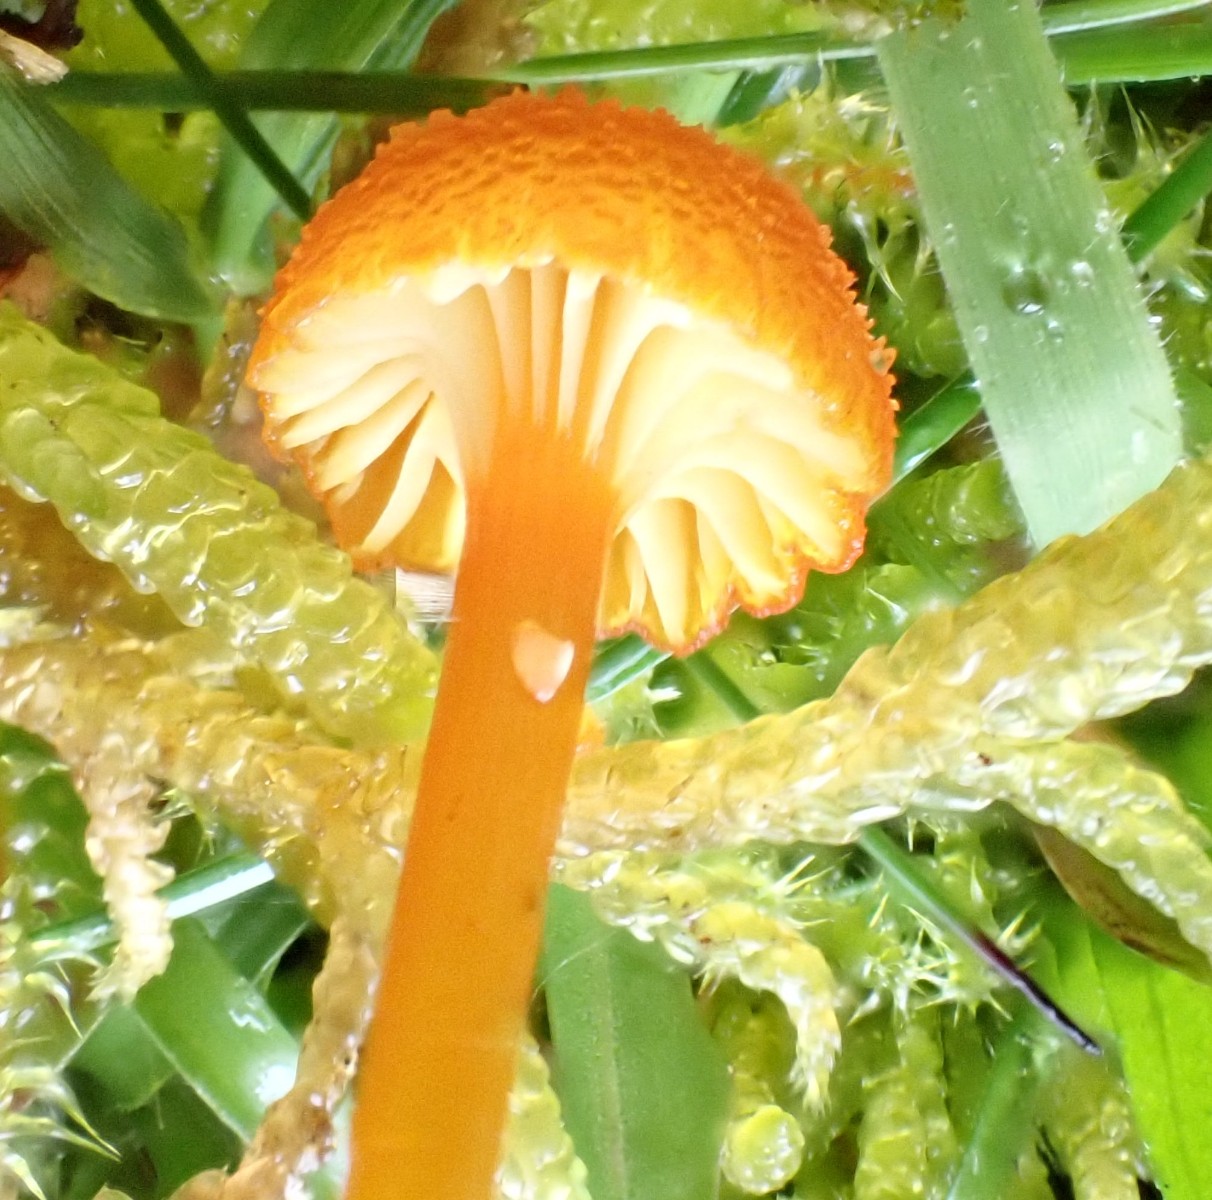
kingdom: Fungi
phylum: Basidiomycota
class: Agaricomycetes
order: Agaricales
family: Hygrophoraceae
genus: Hygrocybe
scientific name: Hygrocybe cantharellus
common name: kantarel-vokshat
